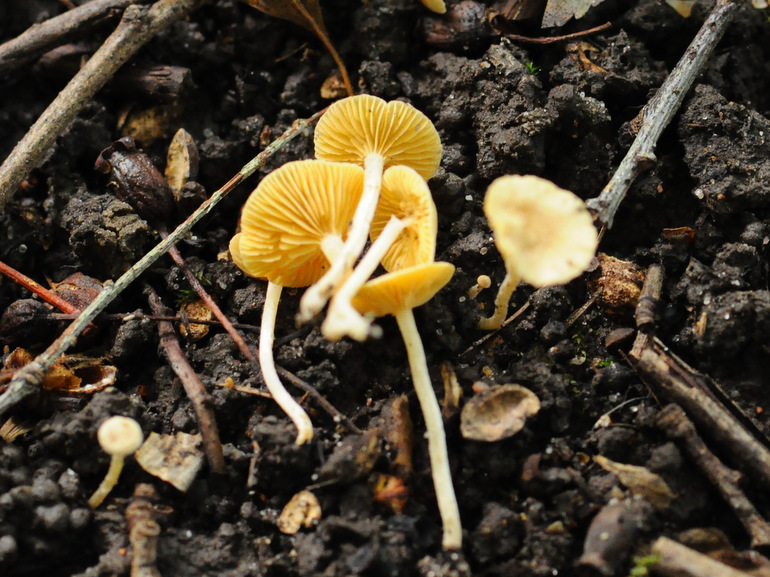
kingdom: Fungi
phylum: Basidiomycota
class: Agaricomycetes
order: Agaricales
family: Tubariaceae
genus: Tubaria
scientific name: Tubaria dispersa
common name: tjørne-fnughat
